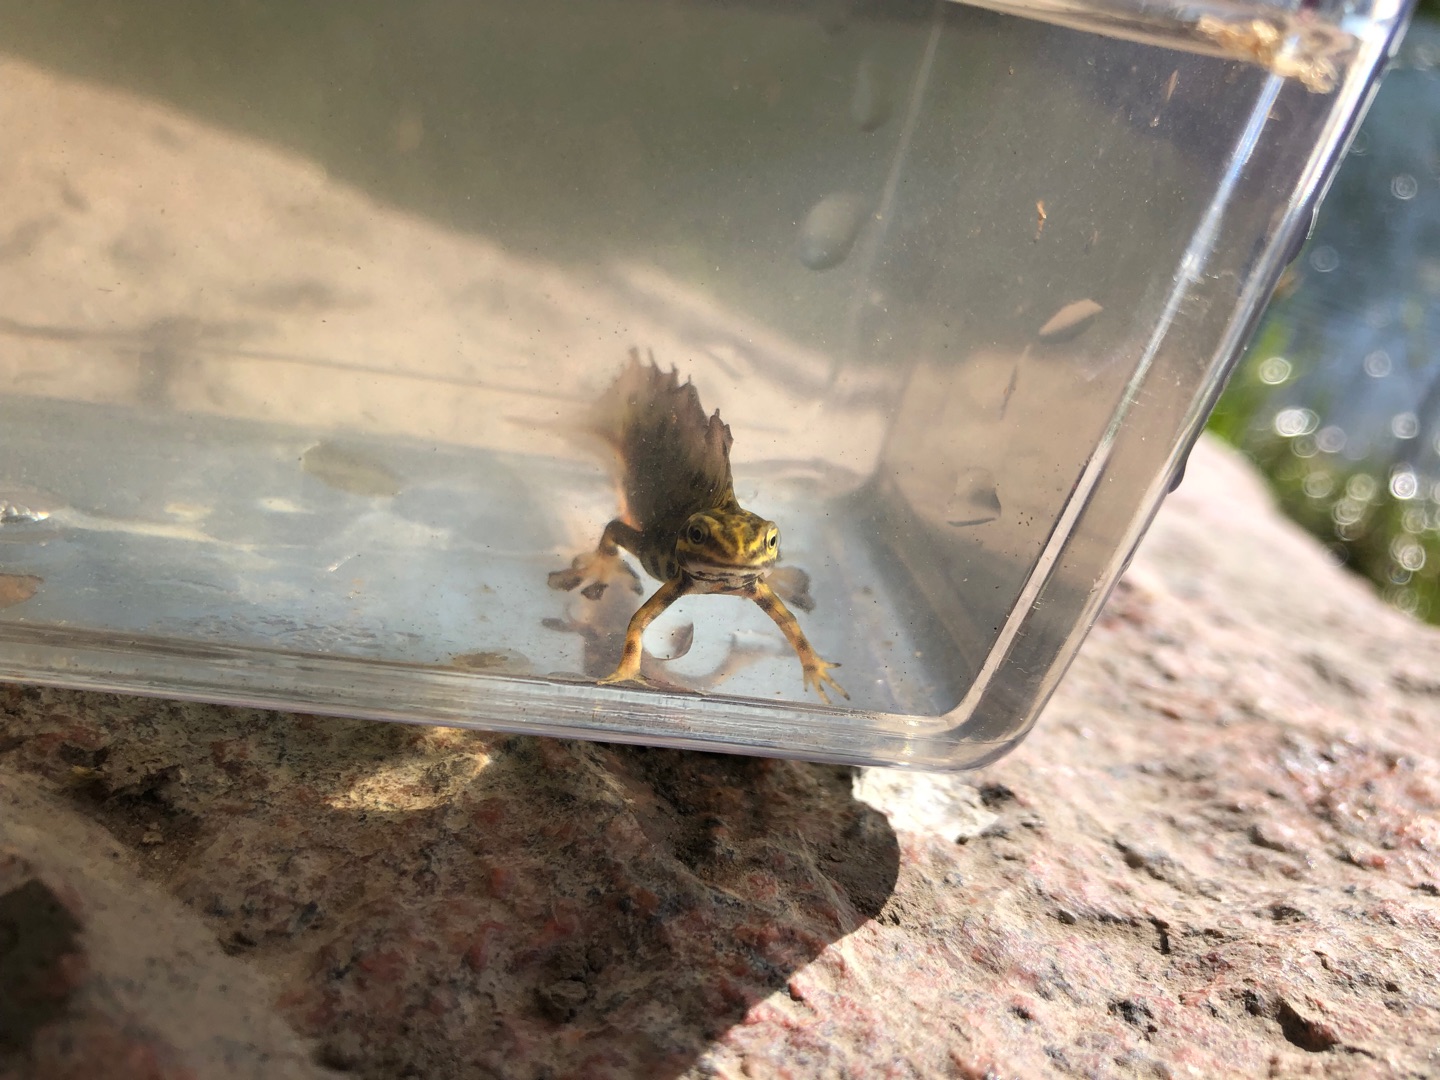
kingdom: Animalia
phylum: Chordata
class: Amphibia
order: Caudata
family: Salamandridae
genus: Lissotriton
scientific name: Lissotriton vulgaris
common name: Lille vandsalamander
